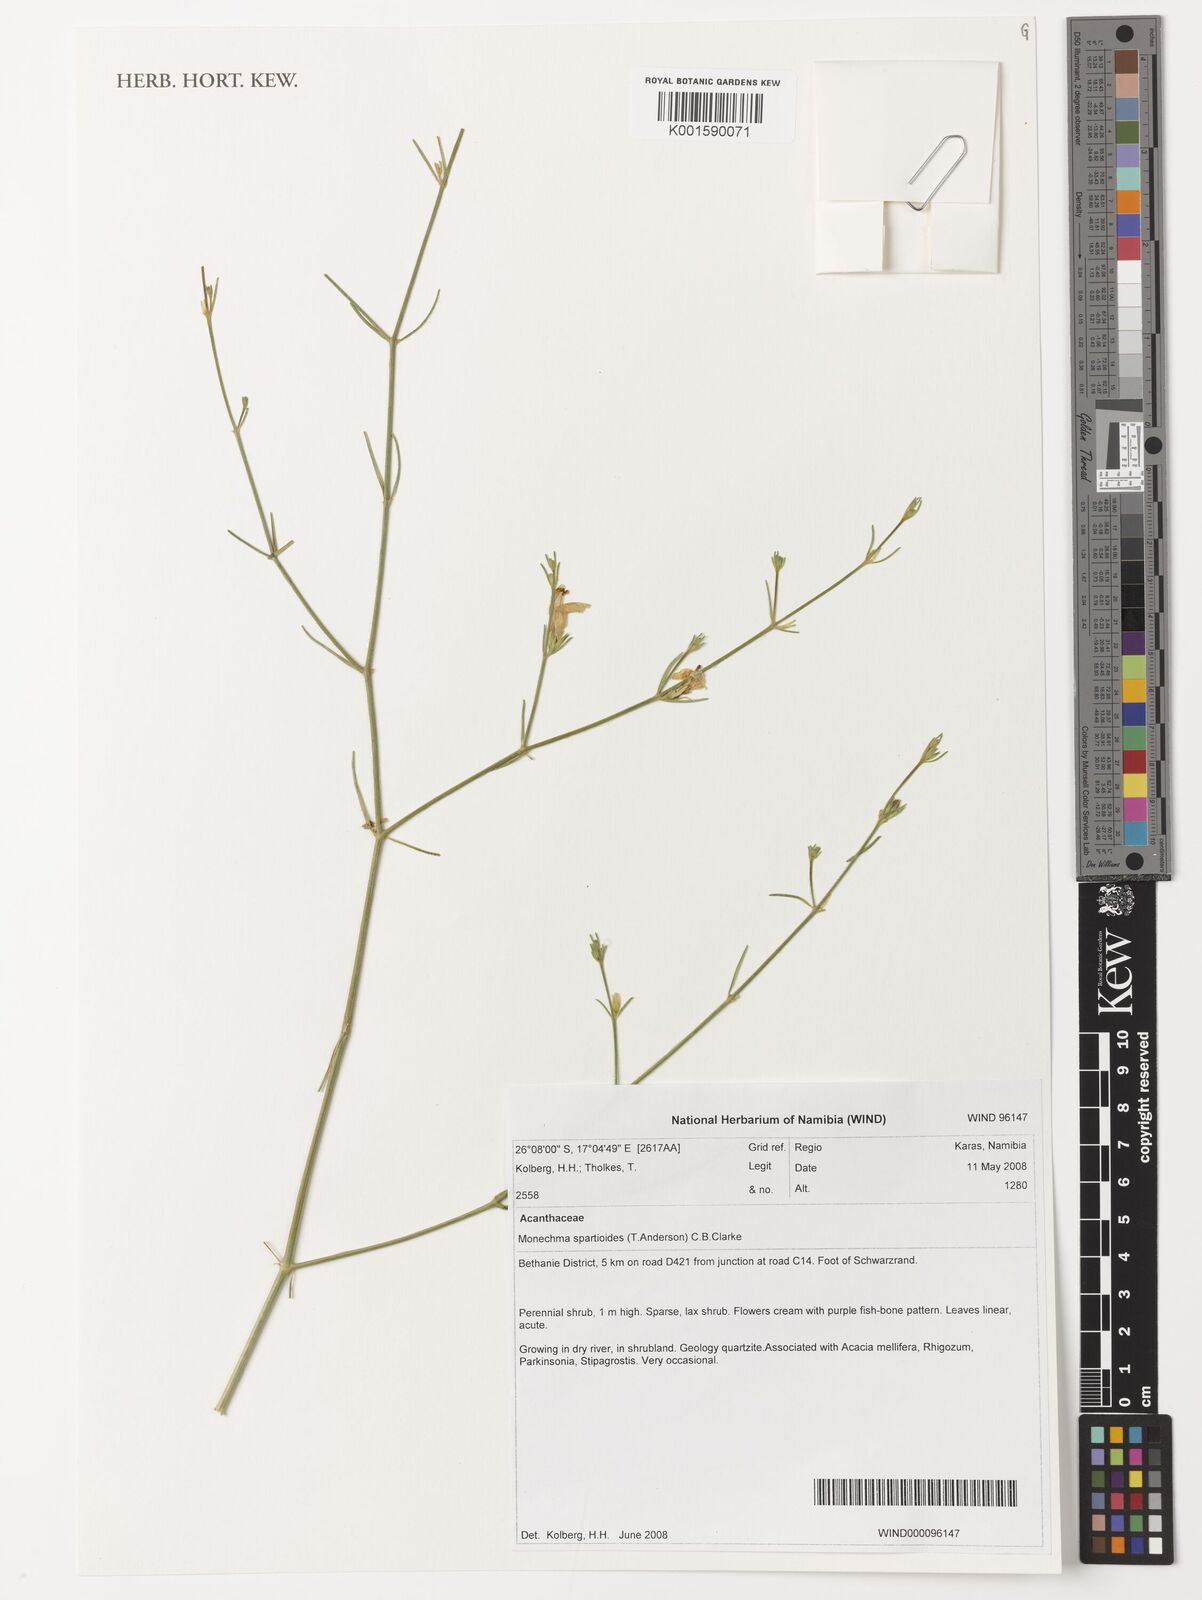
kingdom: Plantae
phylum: Tracheophyta
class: Magnoliopsida
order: Lamiales
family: Acanthaceae
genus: Monechma
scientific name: Monechma spartioides
